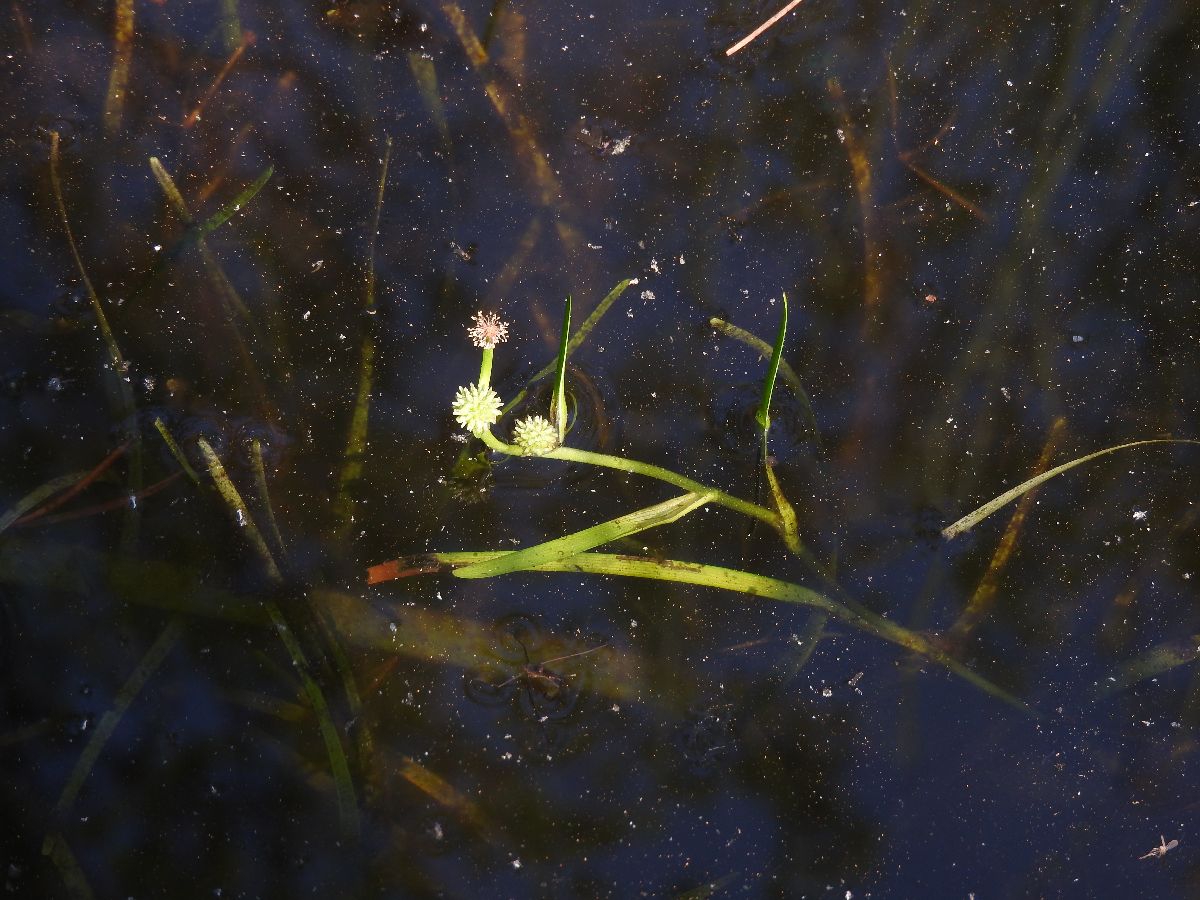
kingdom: Plantae
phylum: Tracheophyta
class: Liliopsida
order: Poales
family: Typhaceae
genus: Sparganium
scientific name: Sparganium natans
